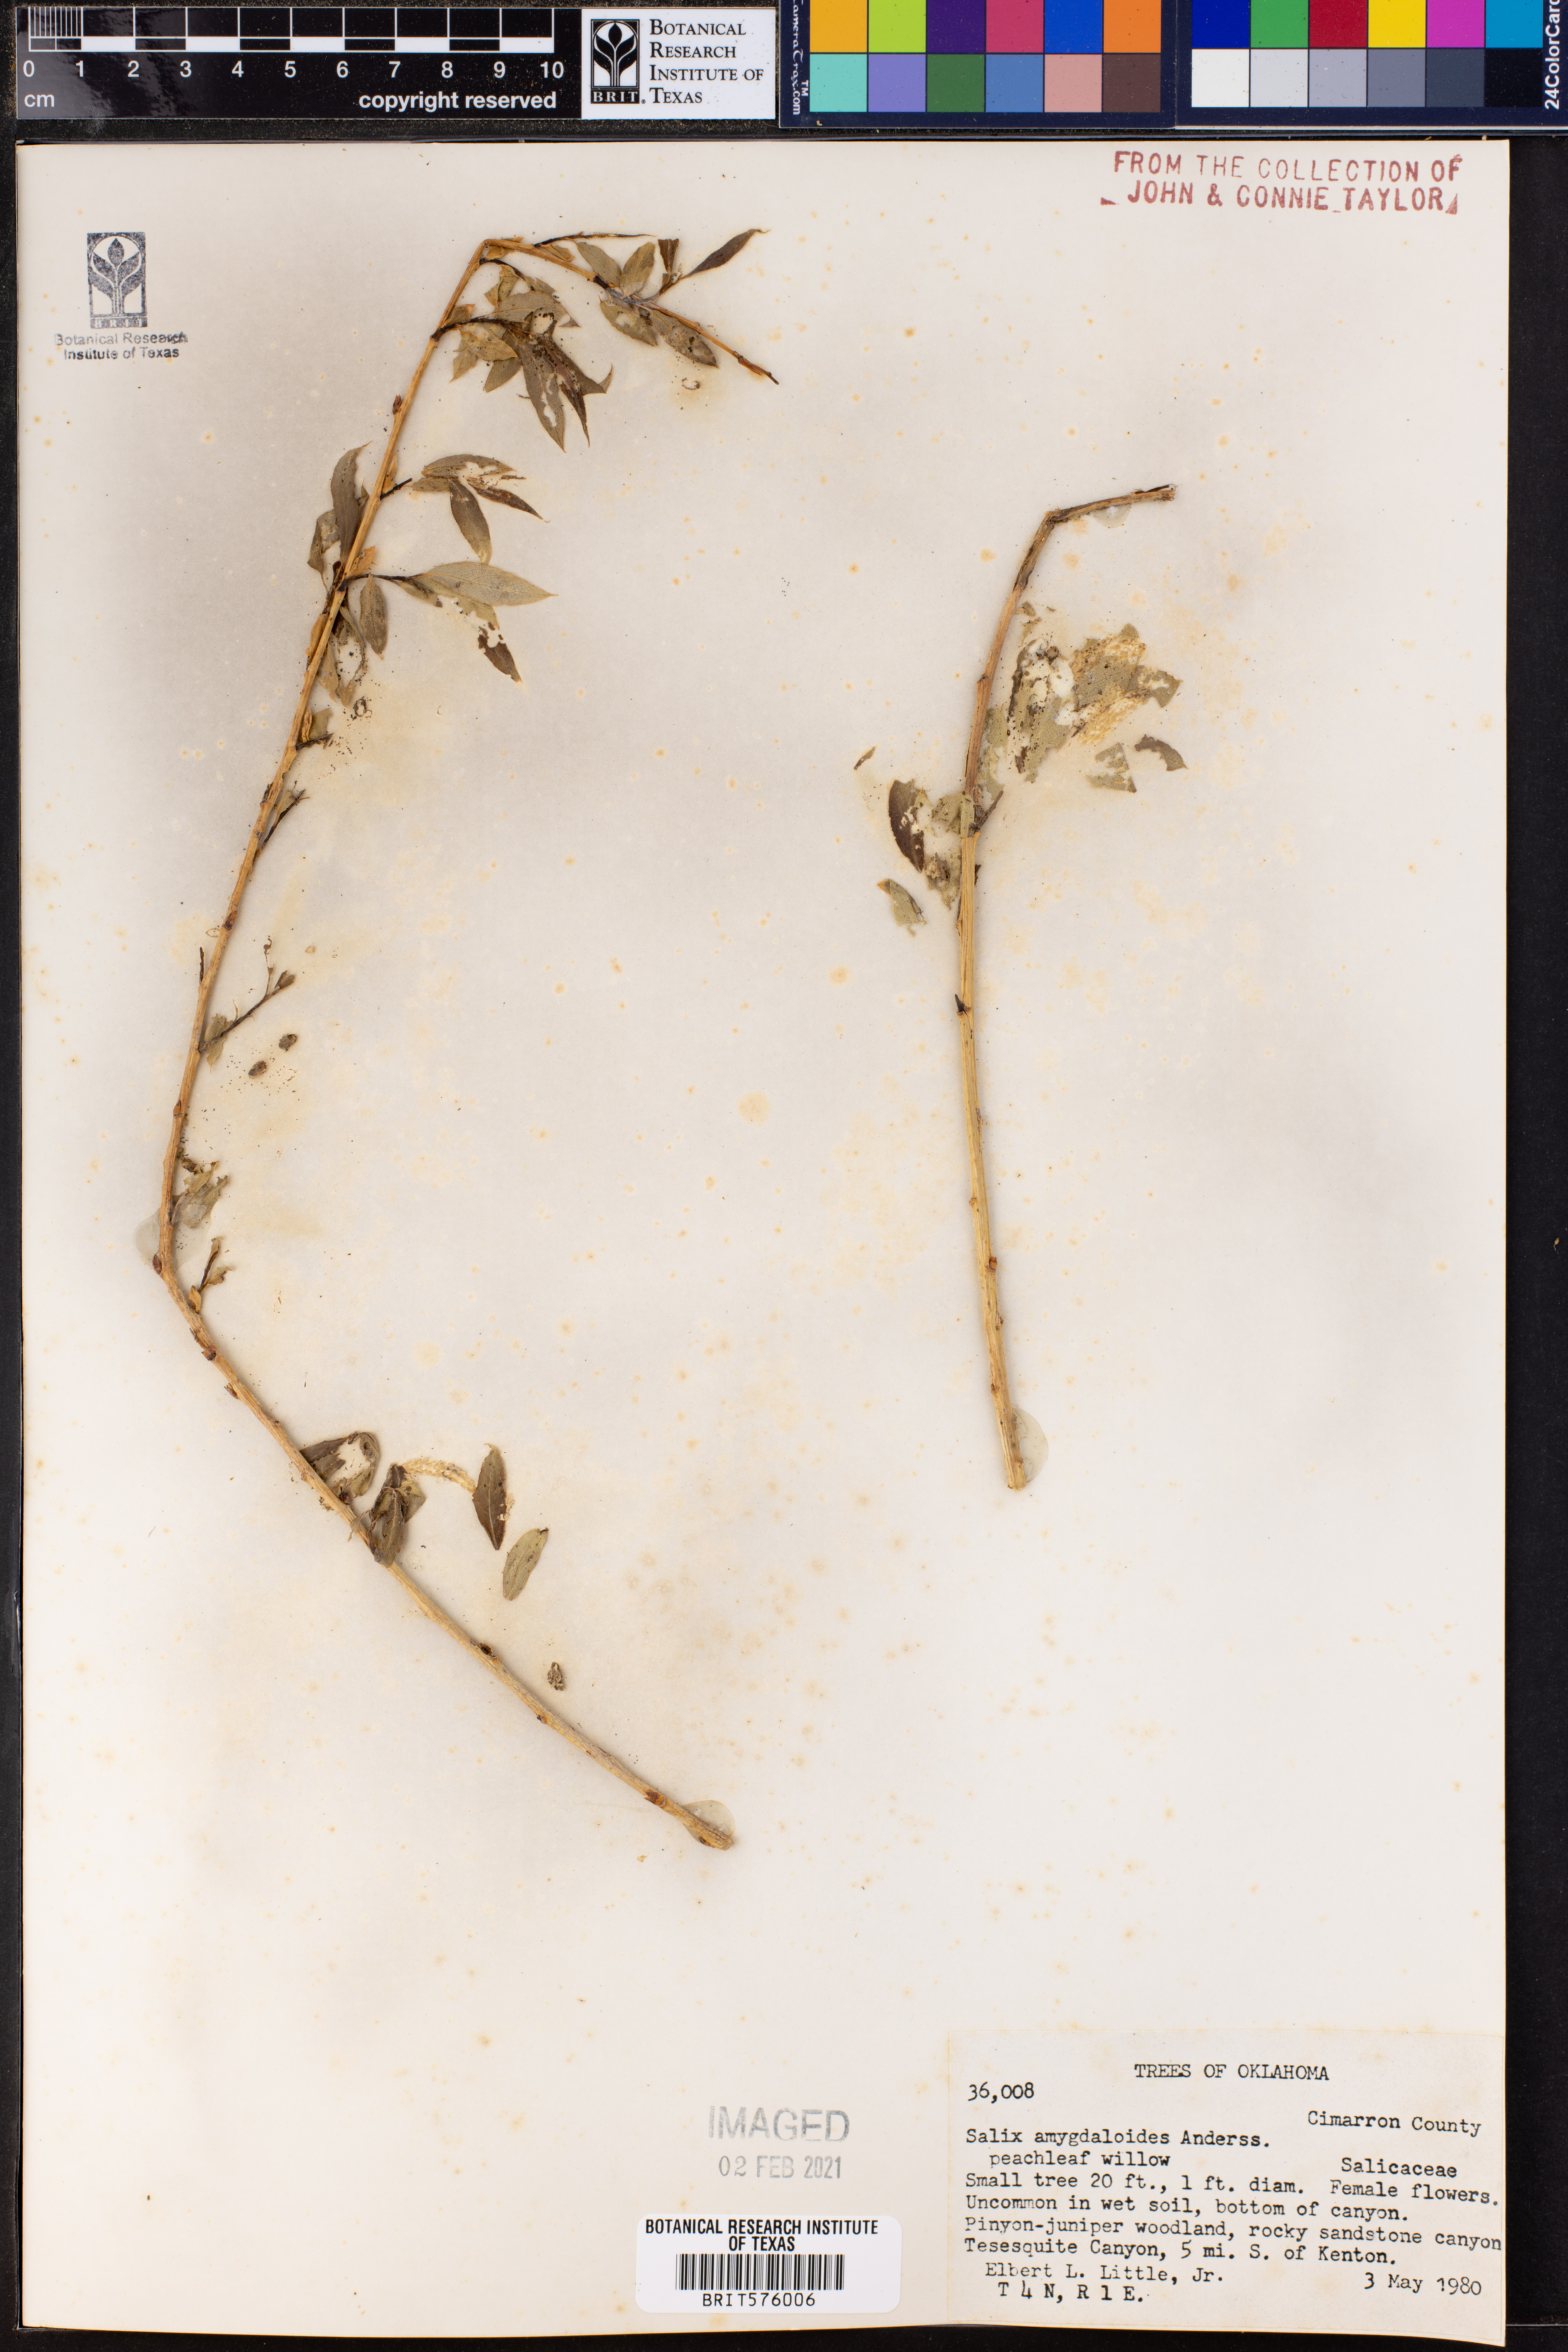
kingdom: Plantae
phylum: Tracheophyta
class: Magnoliopsida
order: Malpighiales
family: Salicaceae
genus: Salix
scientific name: Salix amygdaloides
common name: Peach leaf willow
